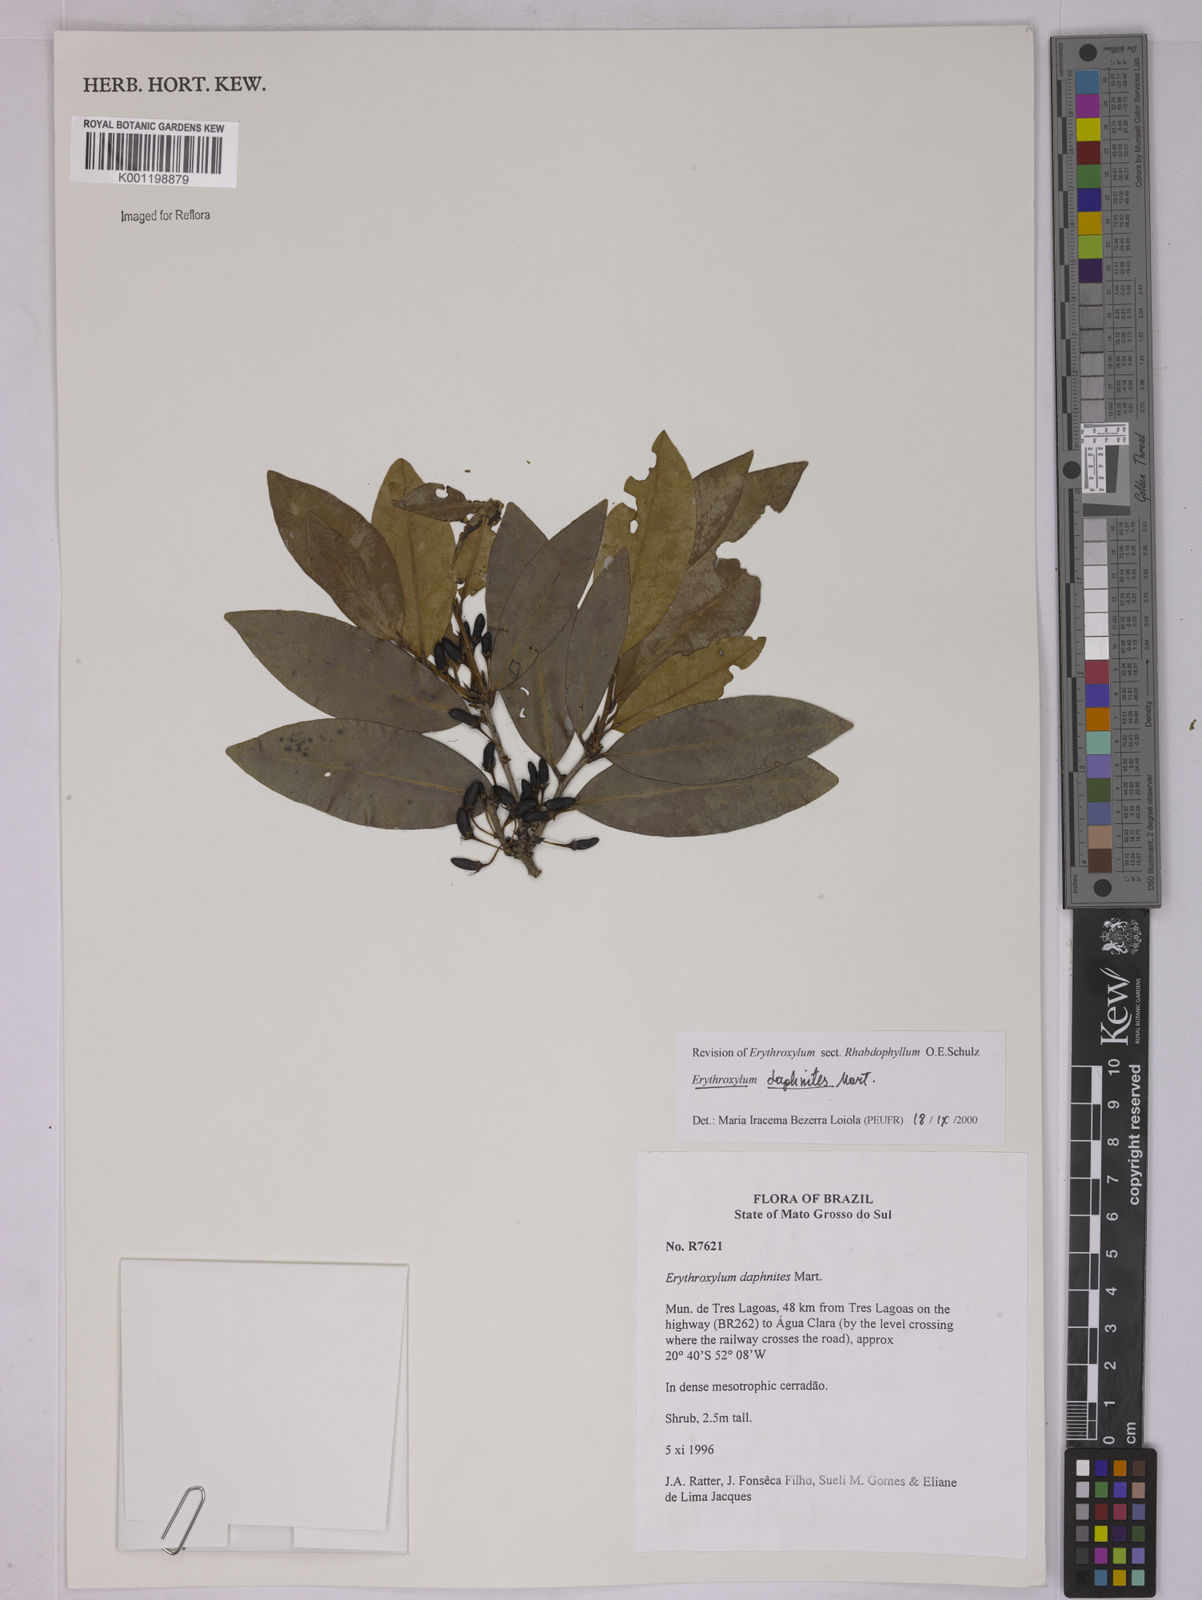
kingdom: Plantae
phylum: Tracheophyta
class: Magnoliopsida
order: Malpighiales
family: Erythroxylaceae
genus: Erythroxylum
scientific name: Erythroxylum daphnites
